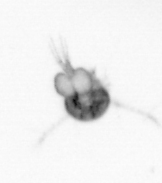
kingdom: Animalia
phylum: Arthropoda
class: Copepoda
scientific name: Copepoda
